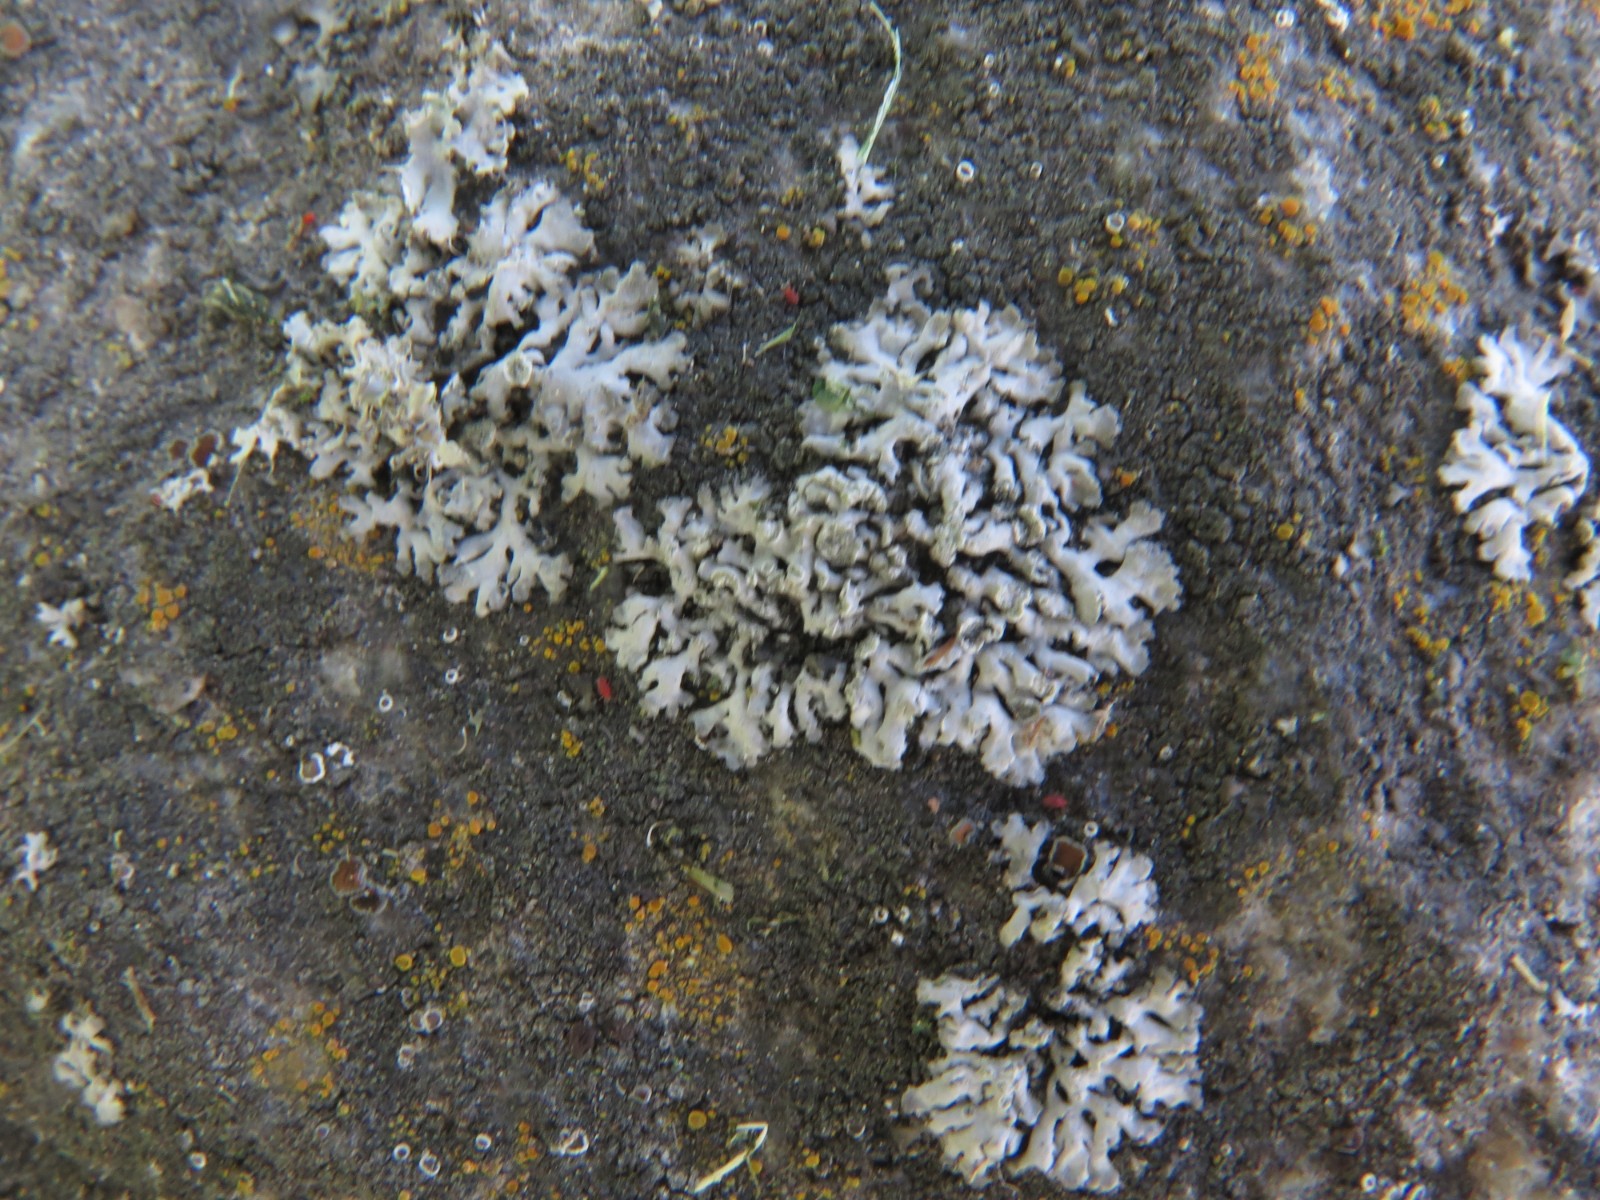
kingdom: Fungi
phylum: Ascomycota
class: Lecanoromycetes
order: Caliciales
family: Physciaceae
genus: Physcia
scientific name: Physcia caesia
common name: blågrå rosetlav
